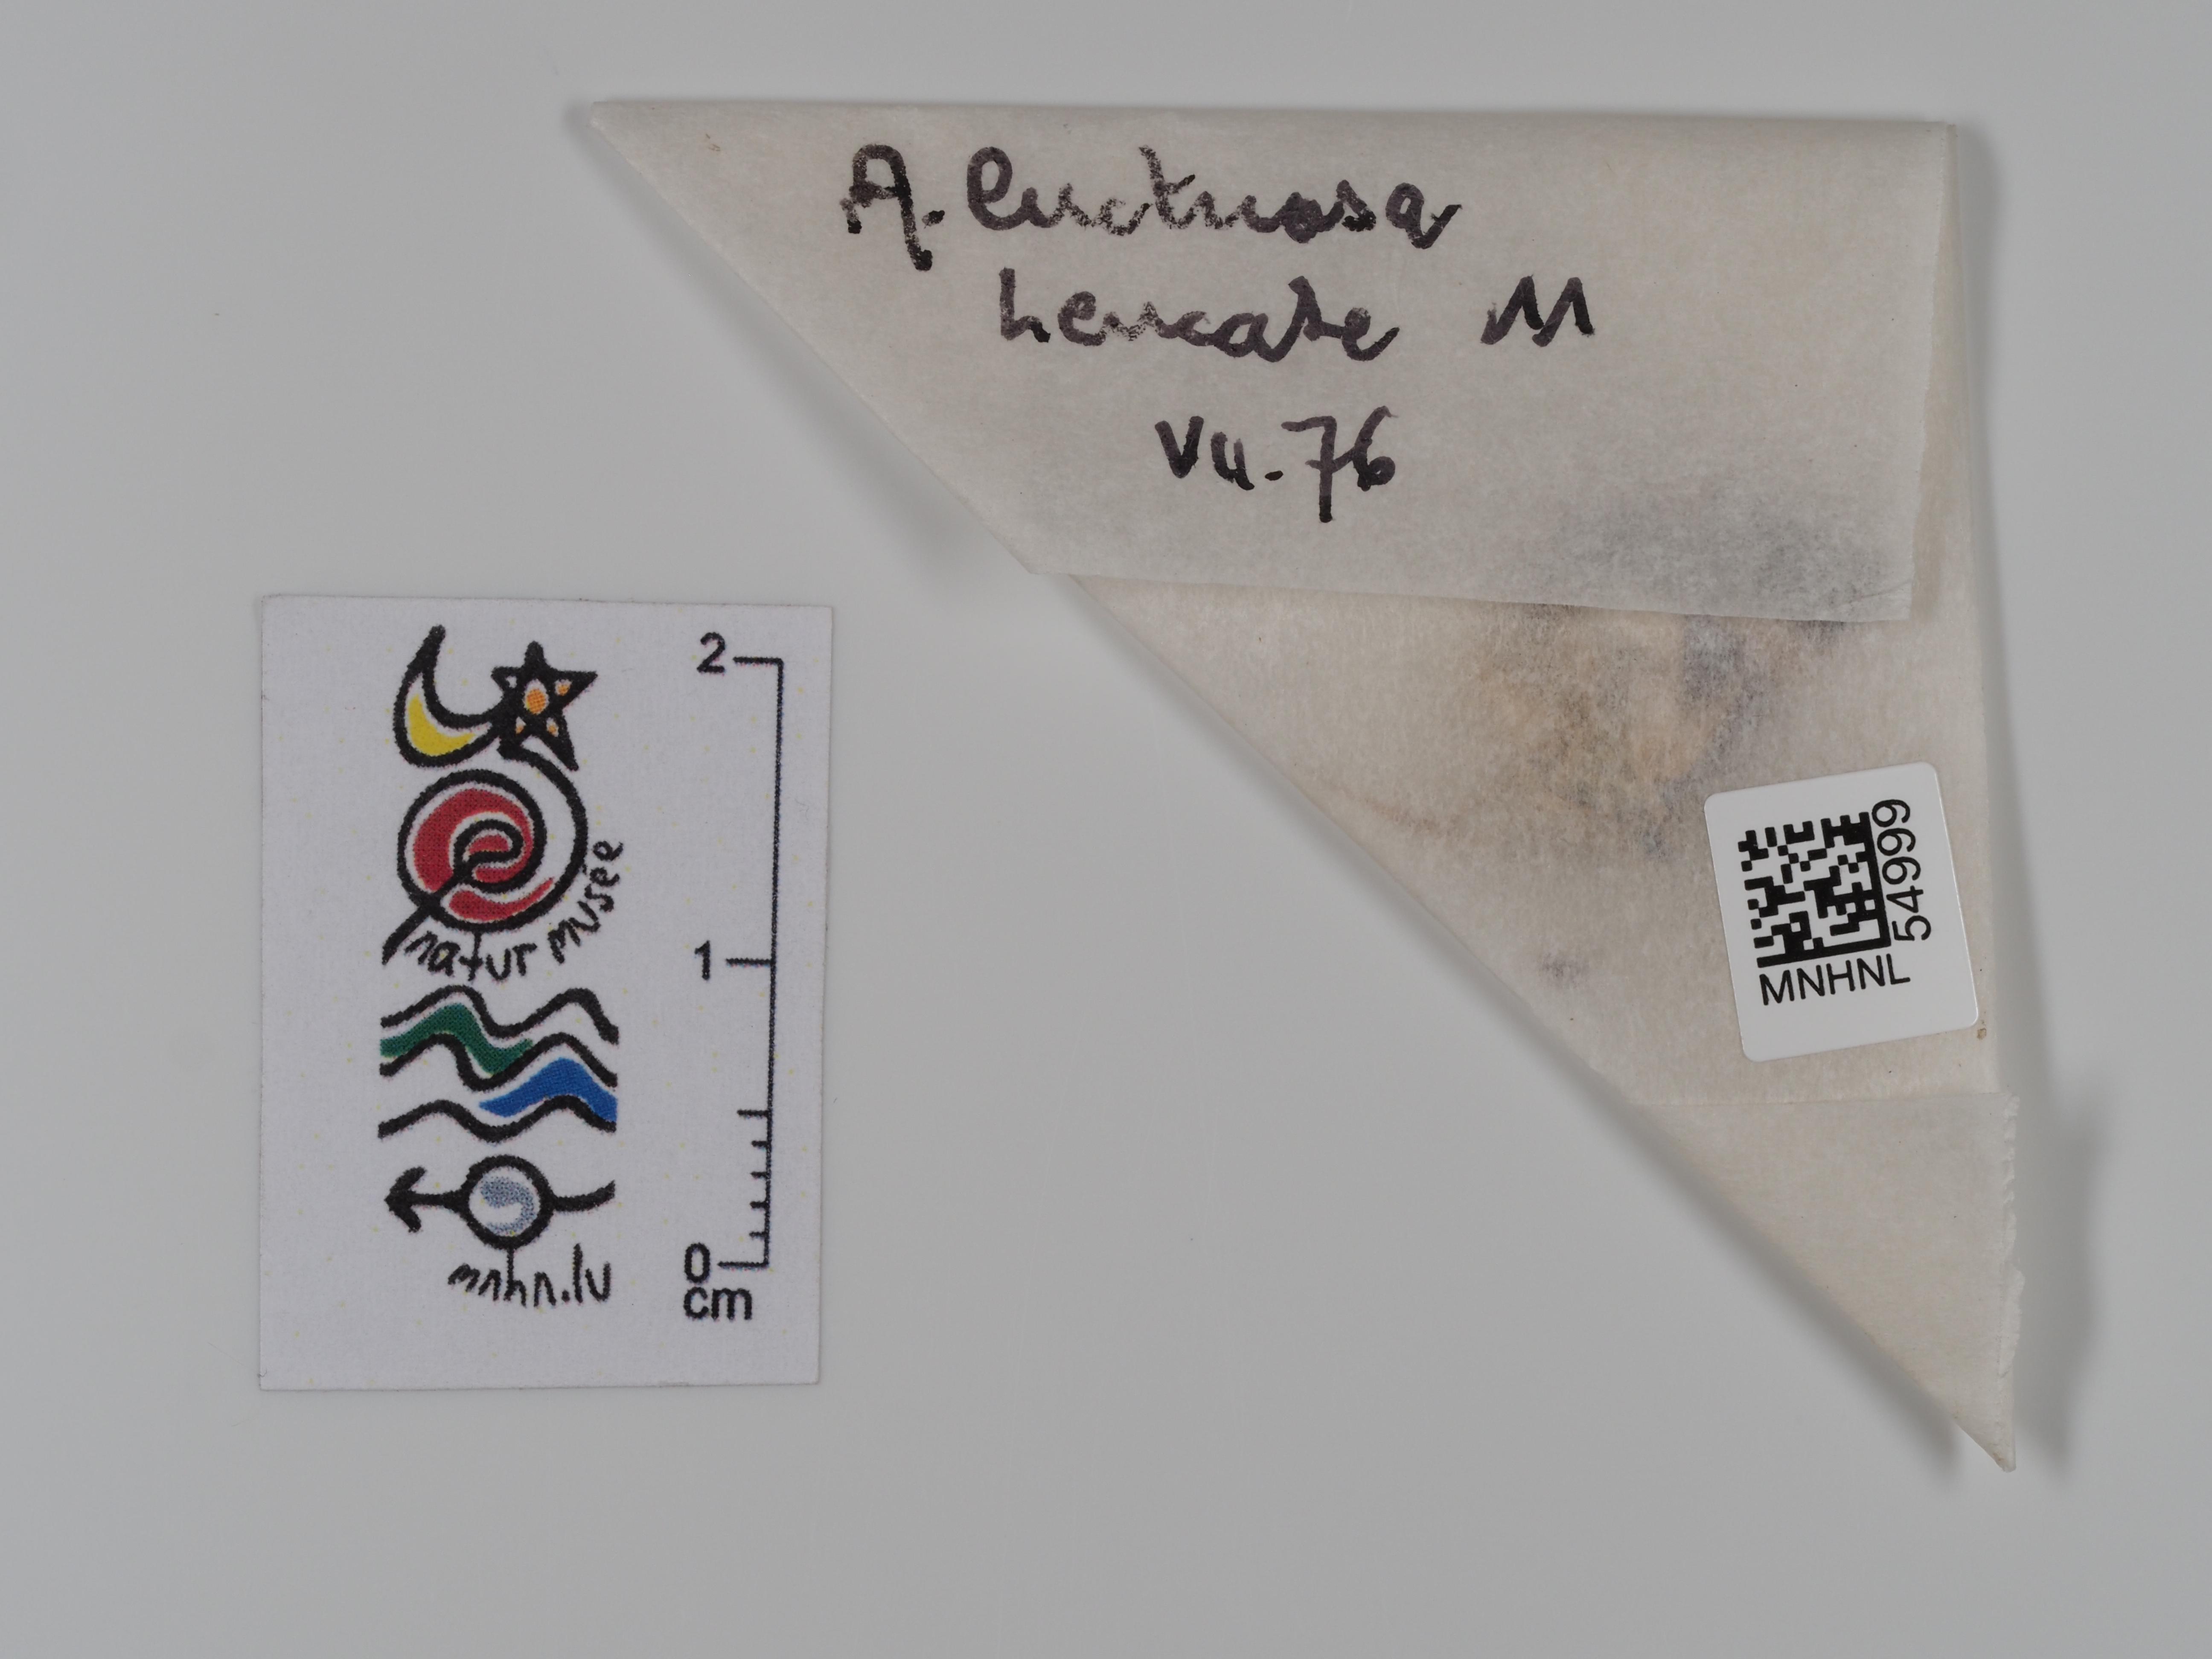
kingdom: Animalia
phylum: Arthropoda
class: Insecta
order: Lepidoptera
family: Erebidae
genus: Tyta
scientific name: Tyta luctuosa
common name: Four-spotted
